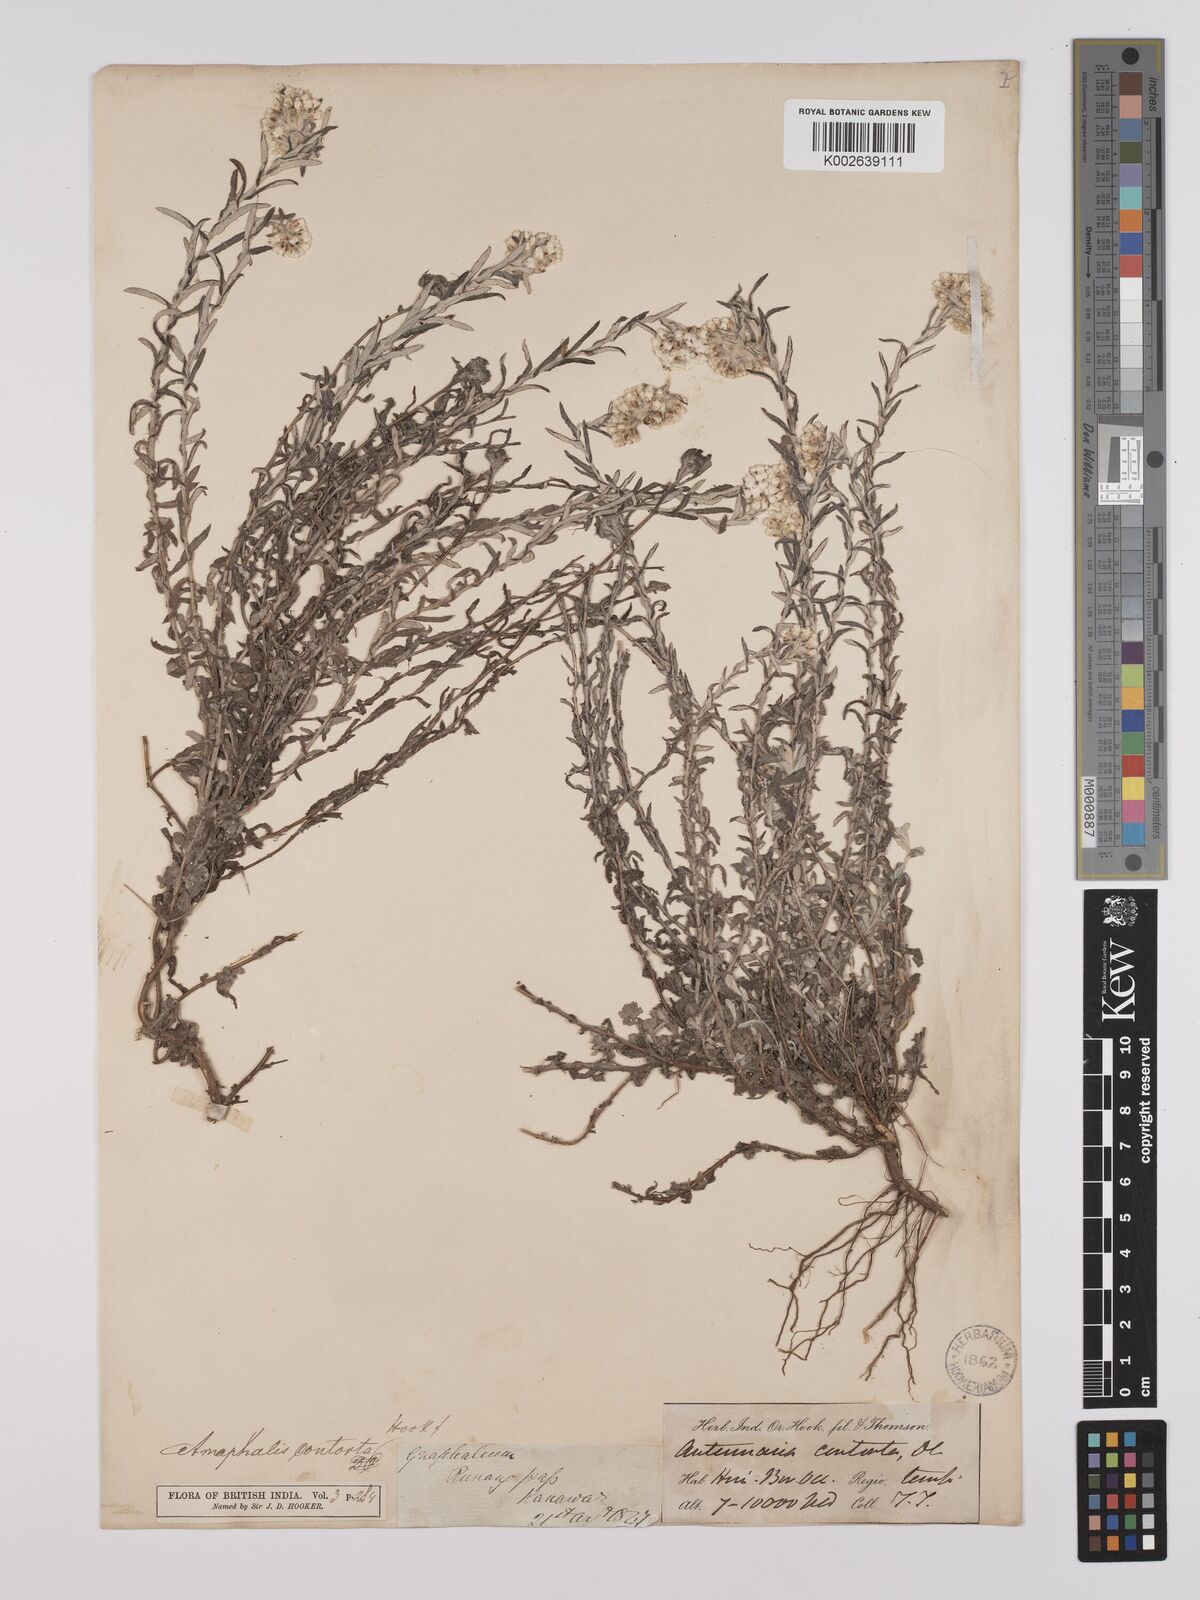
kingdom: Plantae
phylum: Tracheophyta
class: Magnoliopsida
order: Asterales
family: Asteraceae
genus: Anaphalis
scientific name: Anaphalis contorta
